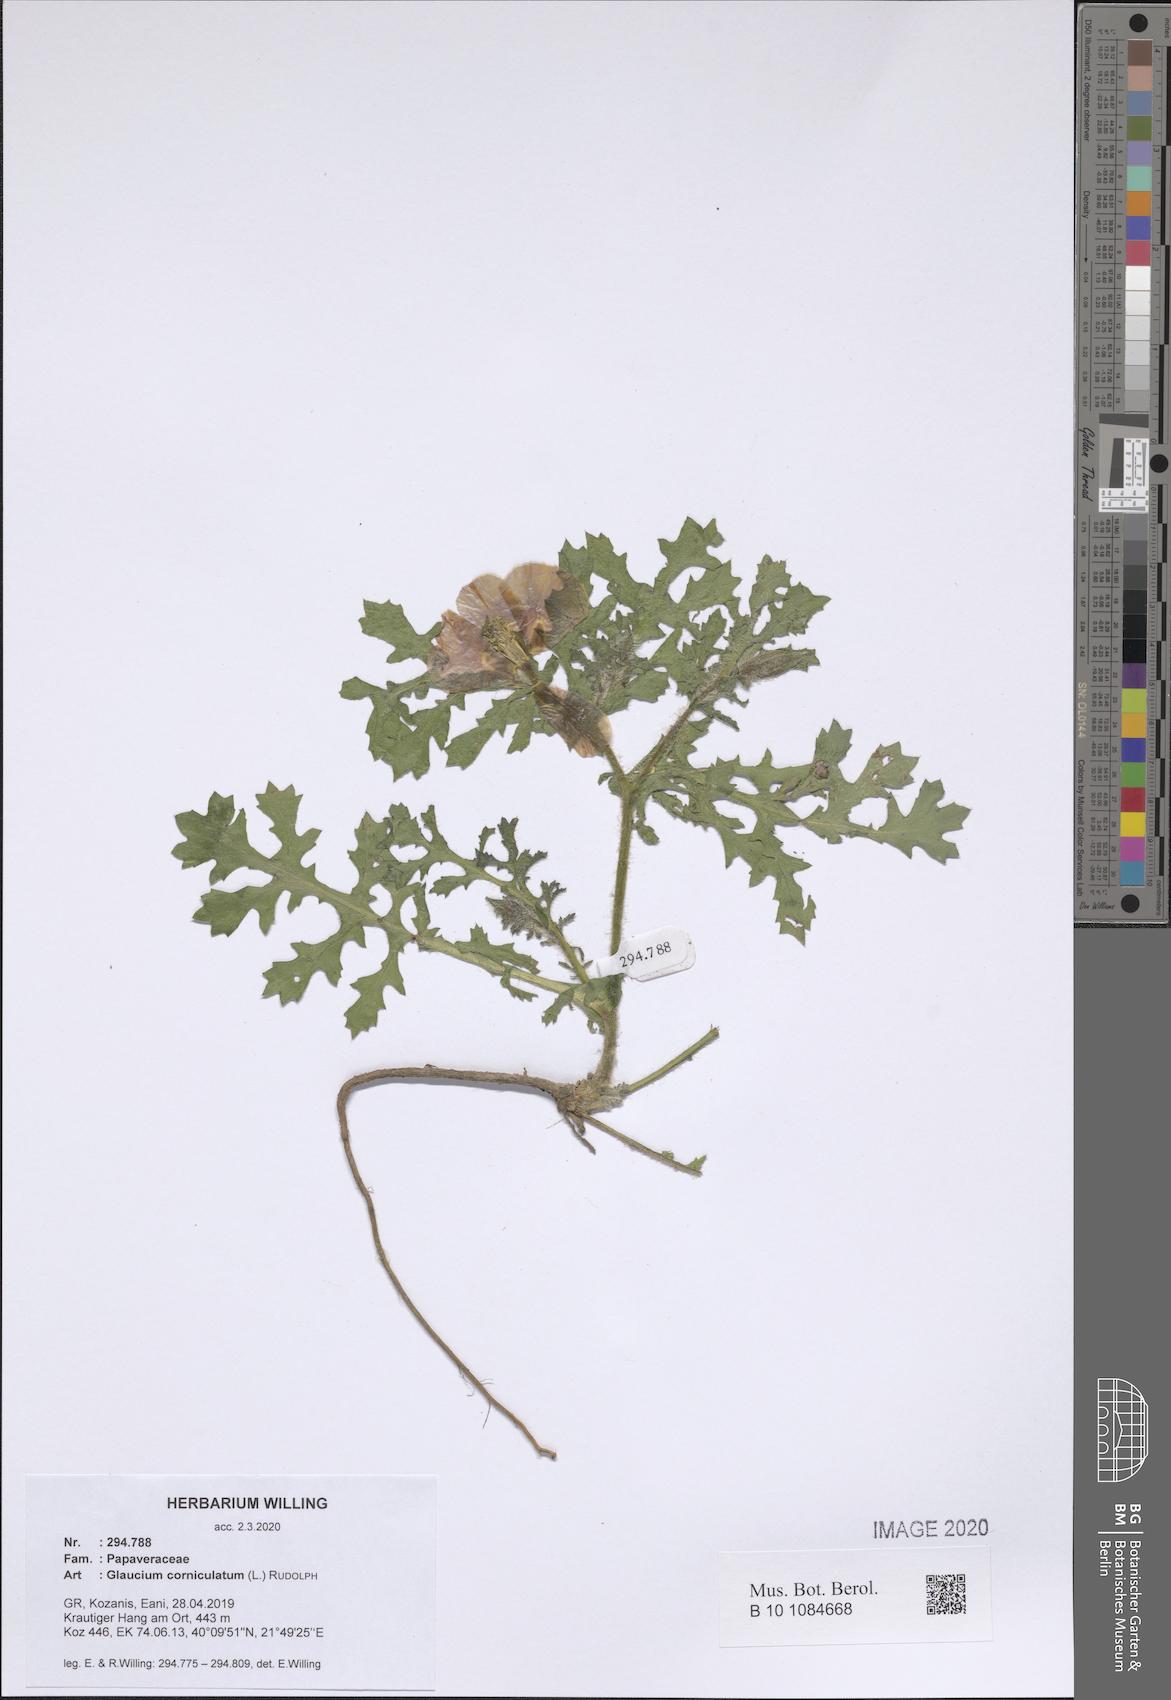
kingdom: Plantae
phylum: Tracheophyta
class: Magnoliopsida
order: Ranunculales
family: Papaveraceae
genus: Glaucium
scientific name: Glaucium corniculatum
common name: Red horned-poppy
